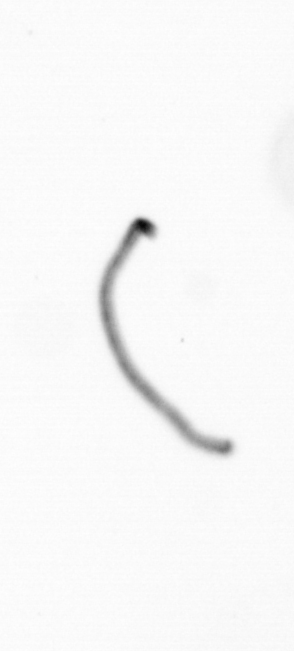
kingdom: Chromista
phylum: Ochrophyta
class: Bacillariophyceae
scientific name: Bacillariophyceae
